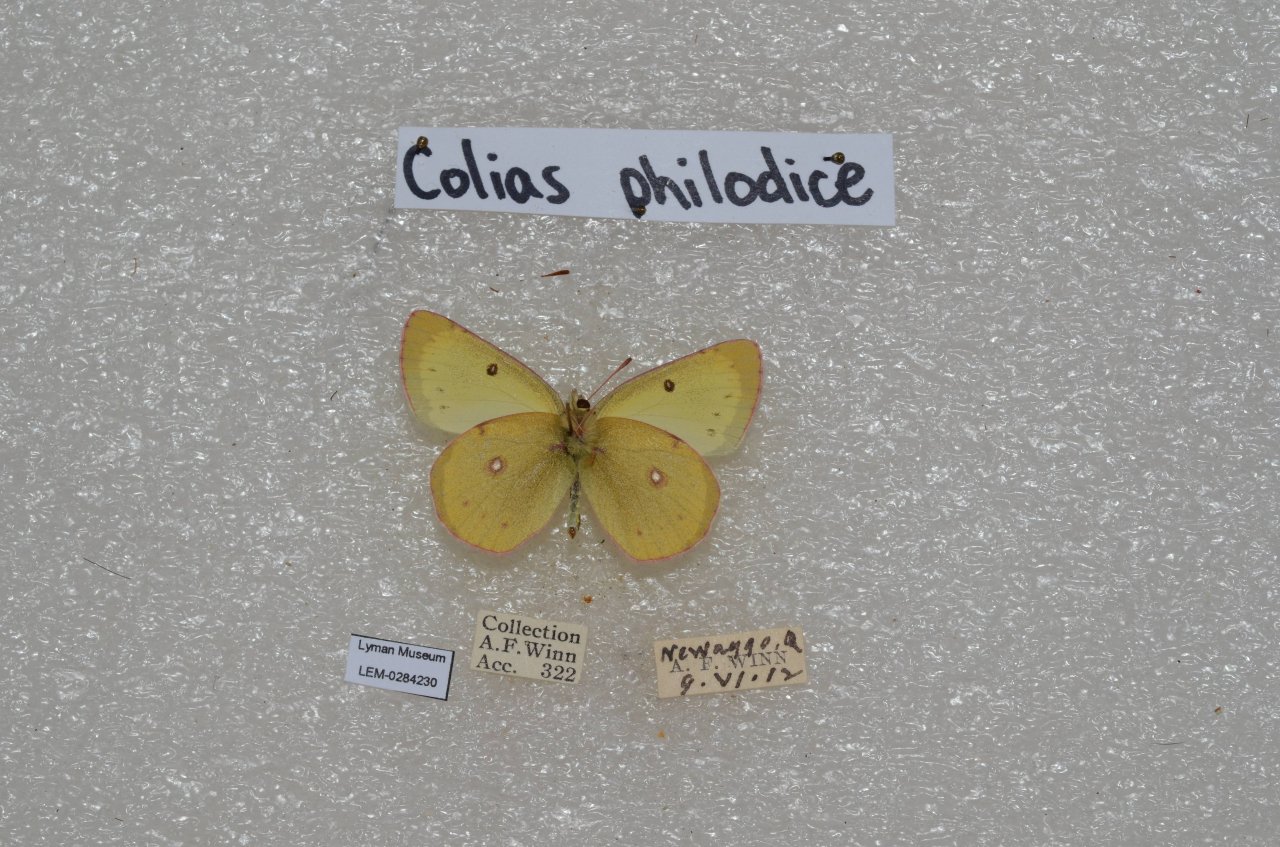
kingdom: Animalia
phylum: Arthropoda
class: Insecta
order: Lepidoptera
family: Pieridae
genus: Colias
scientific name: Colias philodice
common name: Clouded Sulphur
